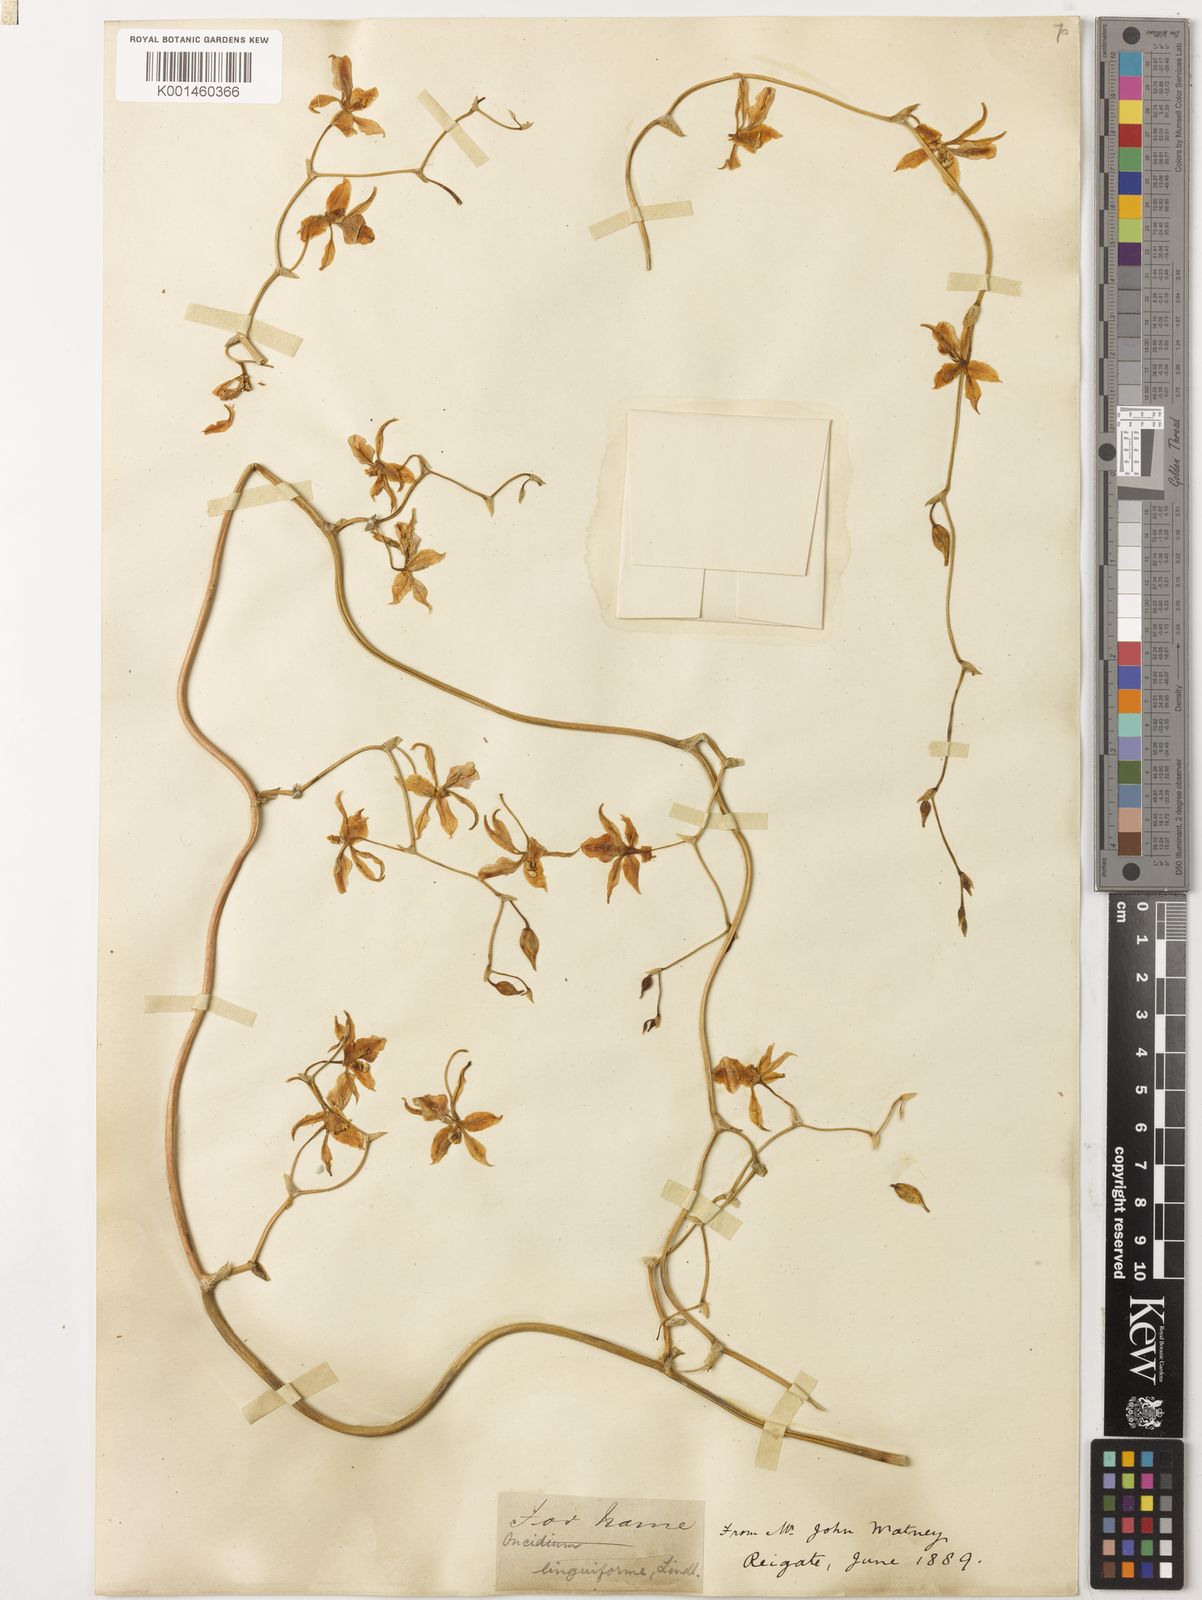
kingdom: Plantae
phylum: Tracheophyta
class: Liliopsida
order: Asparagales
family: Orchidaceae
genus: Cyrtochilum
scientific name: Cyrtochilum linguiforme
